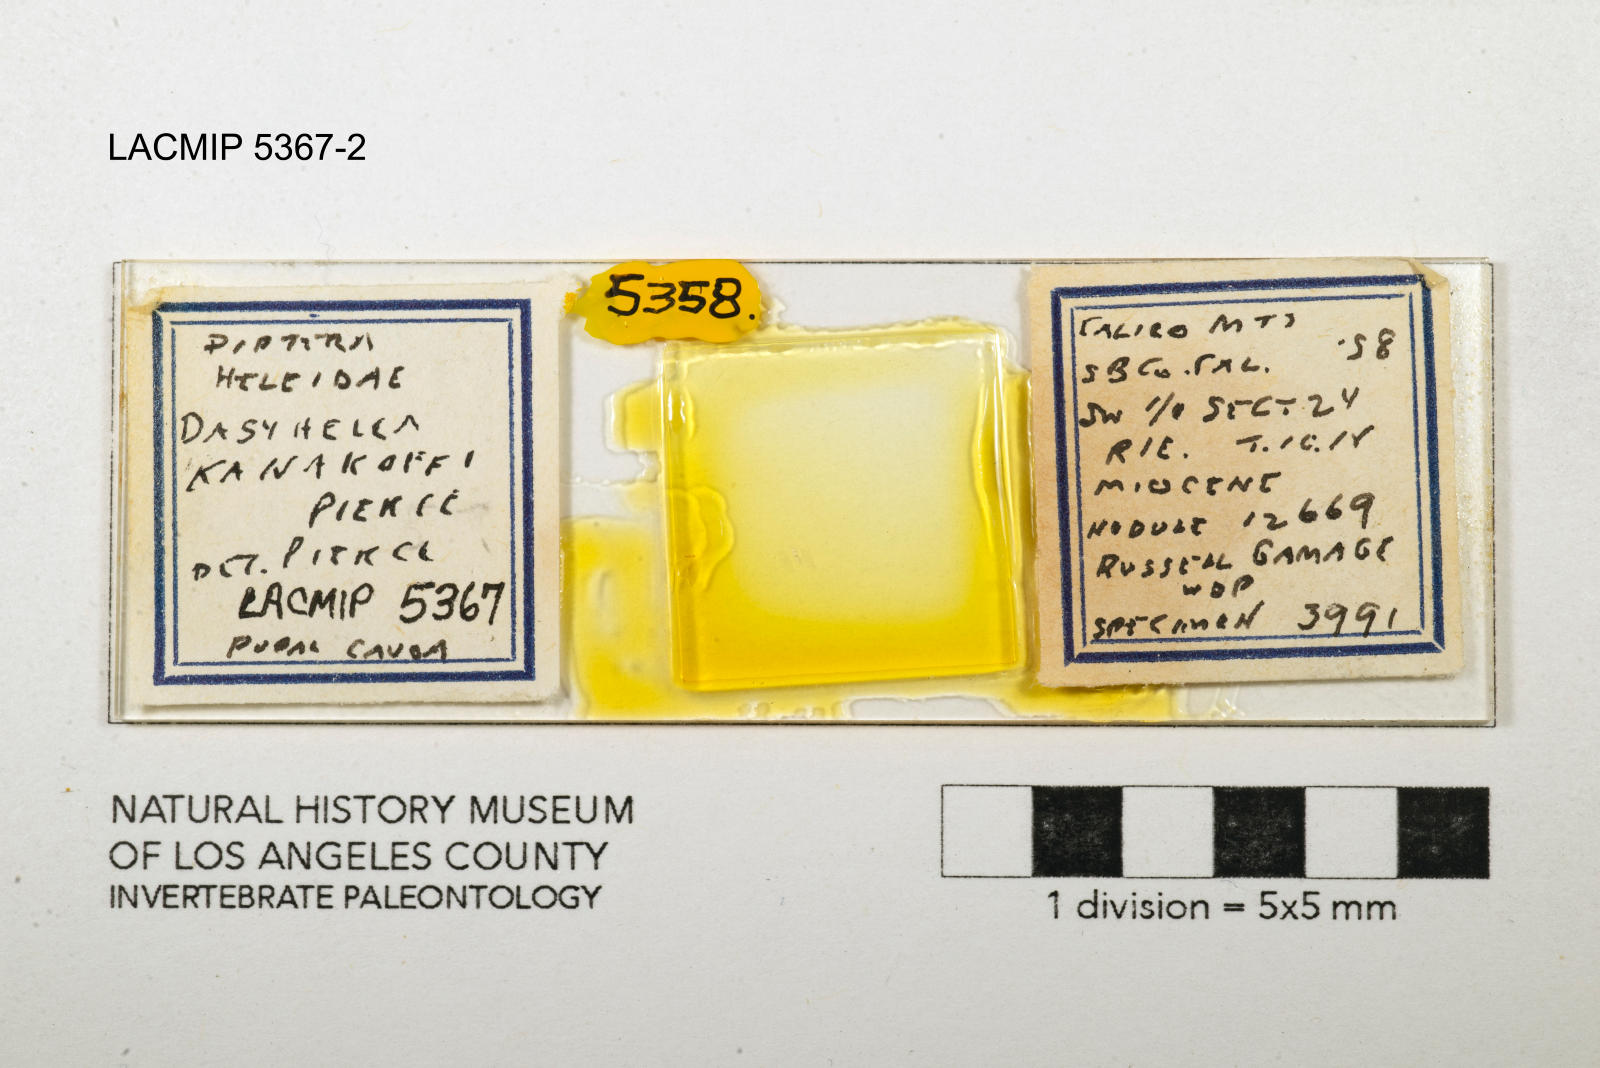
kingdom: Animalia
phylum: Arthropoda
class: Insecta
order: Diptera
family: Ceratopogonidae
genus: Dasyhelea
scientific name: Dasyhelea kanakoffi
